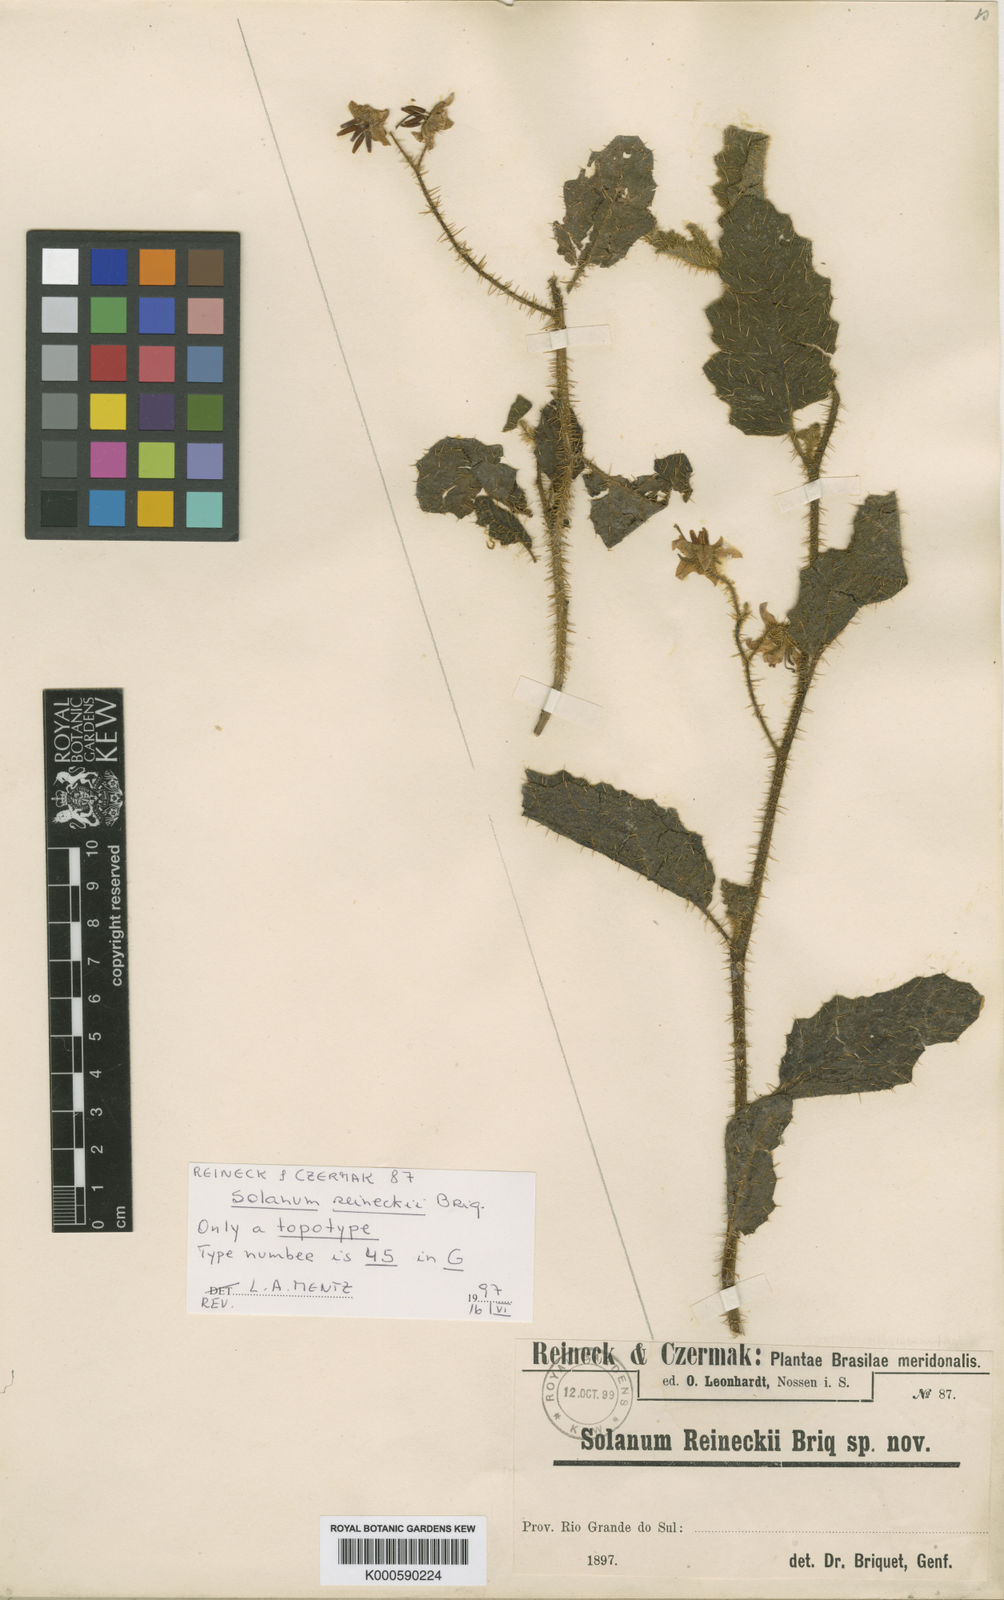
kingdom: Plantae
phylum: Tracheophyta
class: Magnoliopsida
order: Solanales
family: Solanaceae
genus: Solanum
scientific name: Solanum reineckii
